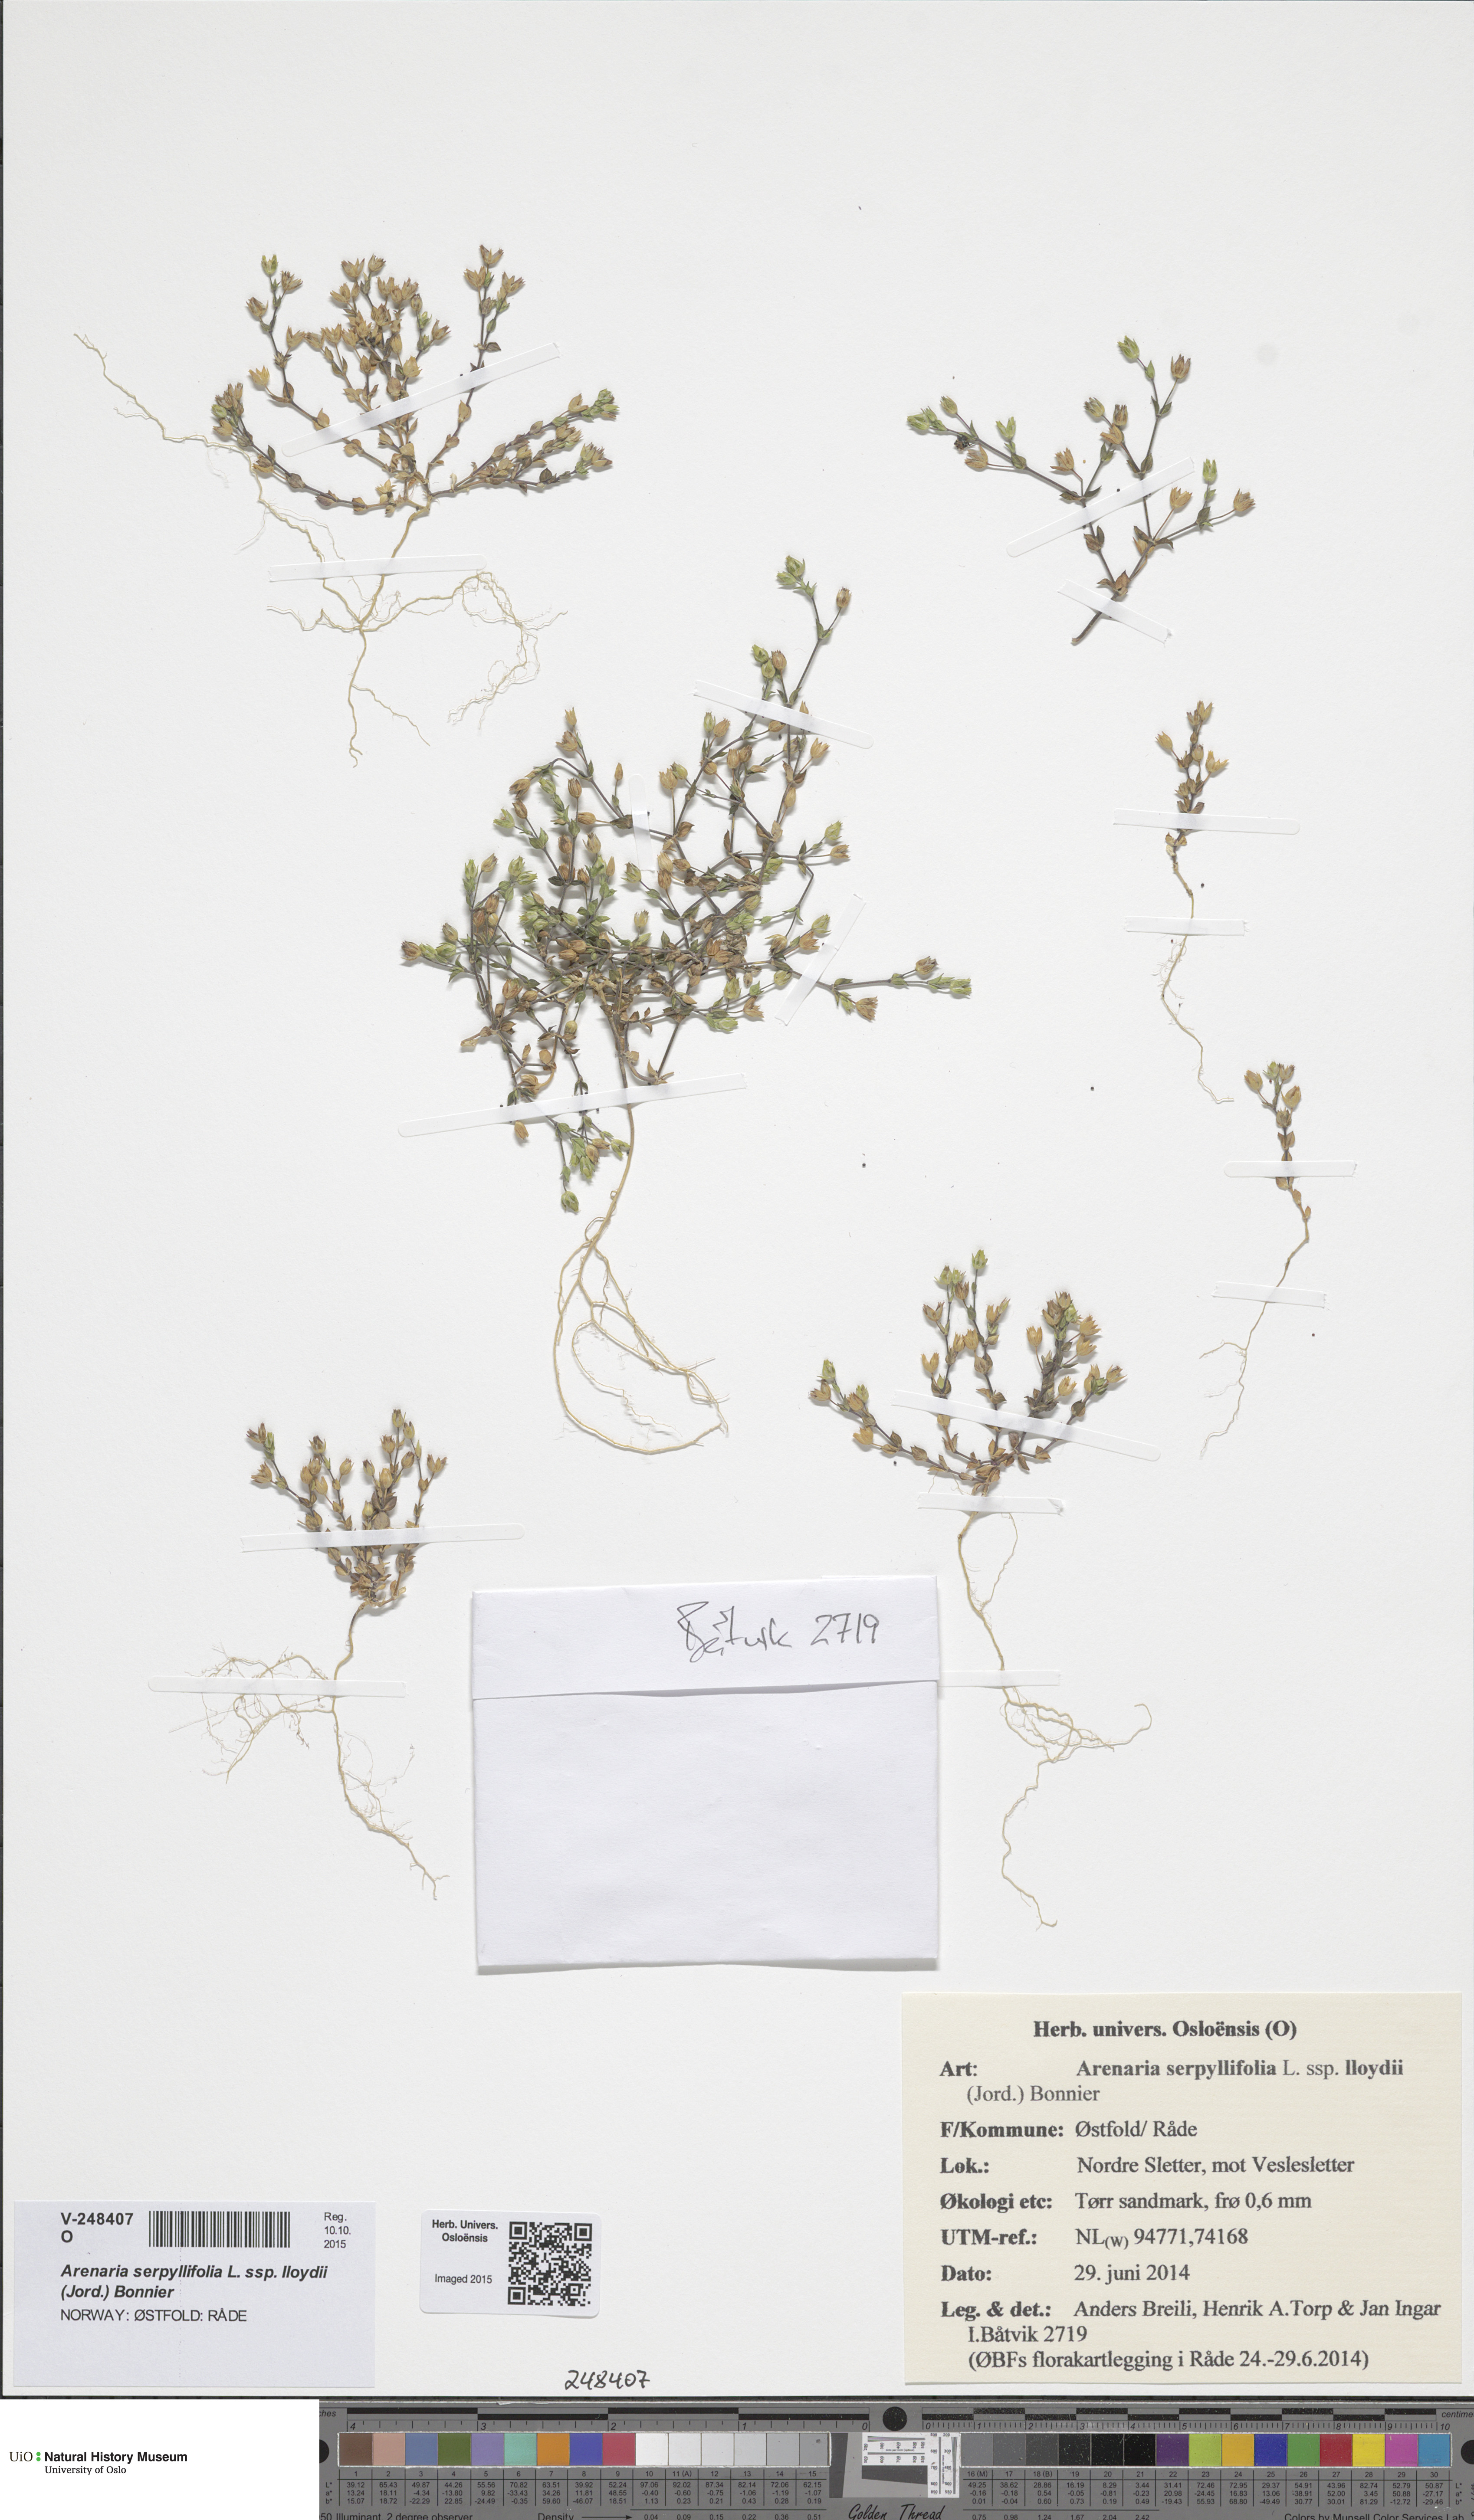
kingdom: Plantae
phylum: Tracheophyta
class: Magnoliopsida
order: Caryophyllales
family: Caryophyllaceae
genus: Arenaria
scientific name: Arenaria serpyllifolia
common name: Thyme-leaved sandwort
